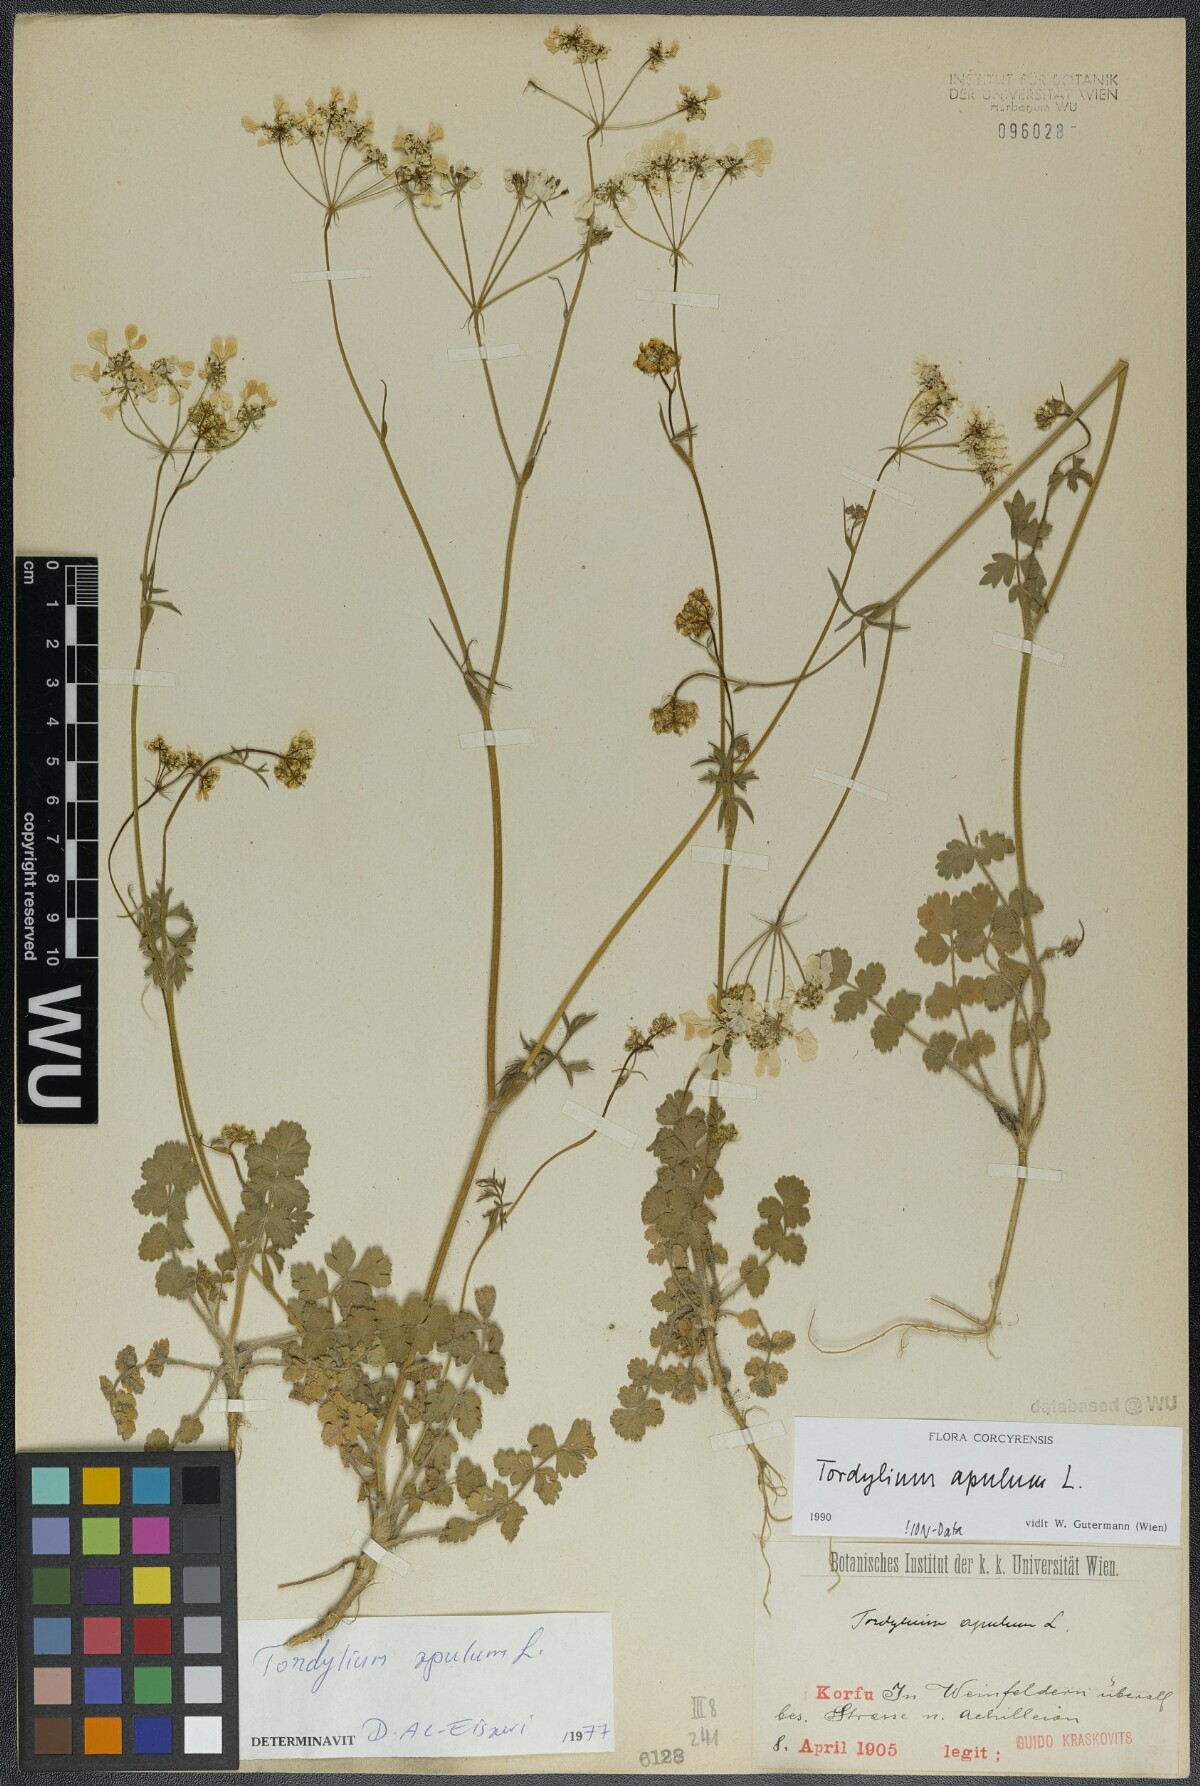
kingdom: Plantae
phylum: Tracheophyta
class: Magnoliopsida
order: Apiales
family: Apiaceae
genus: Tordylium
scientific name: Tordylium apulum
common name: Mediterranean hartwort
